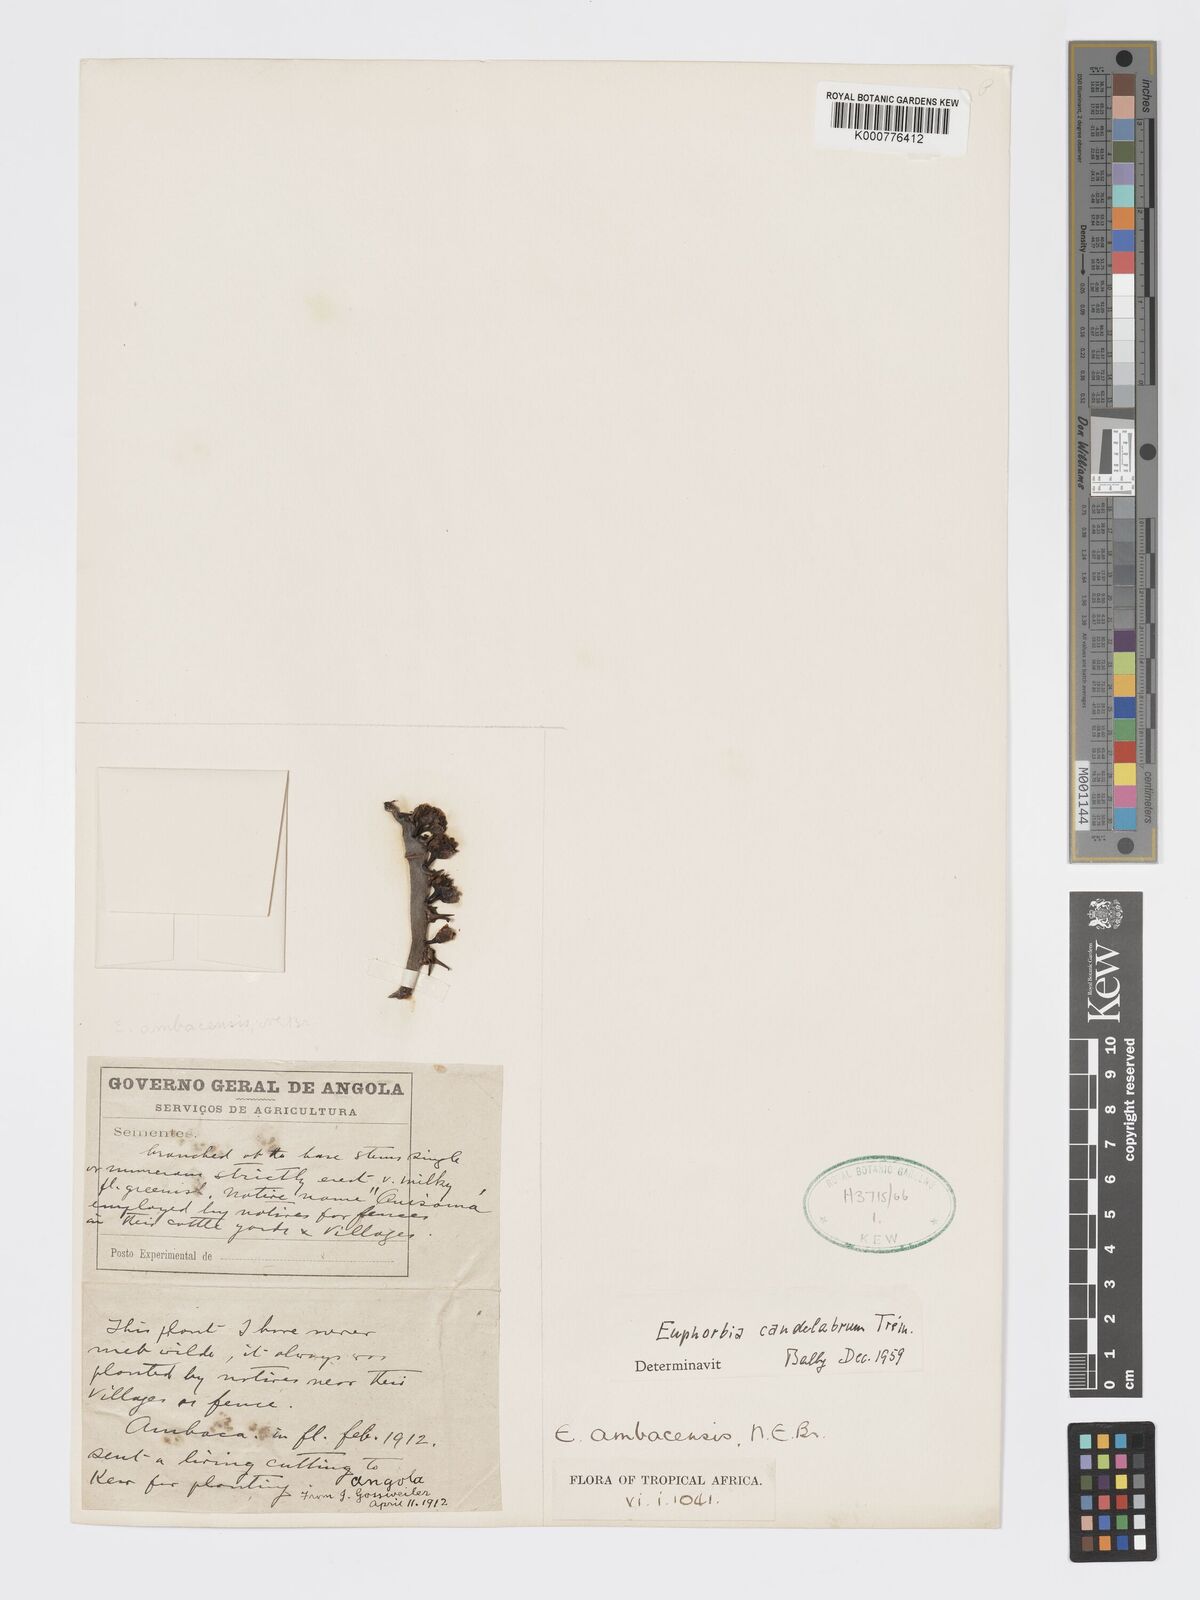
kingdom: Plantae
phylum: Tracheophyta
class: Magnoliopsida
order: Malpighiales
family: Euphorbiaceae
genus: Euphorbia
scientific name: Euphorbia ambacensis
